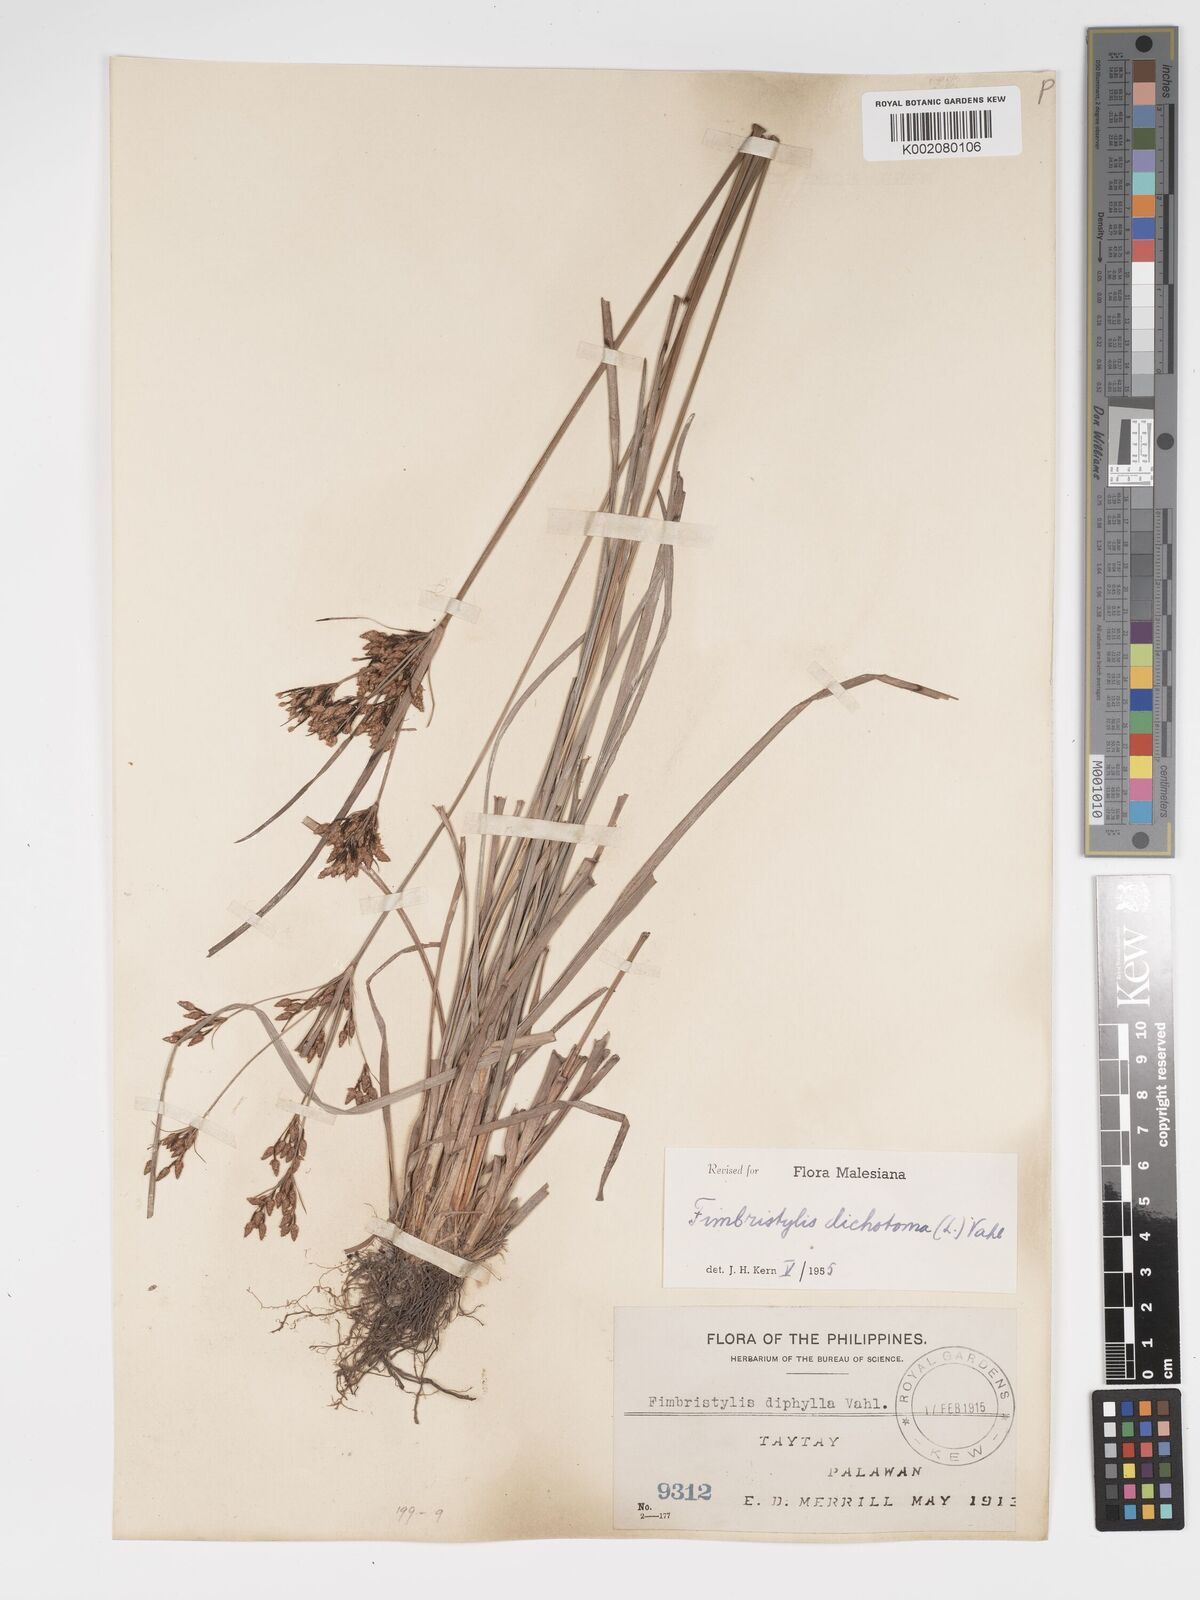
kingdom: Plantae
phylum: Tracheophyta
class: Liliopsida
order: Poales
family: Cyperaceae
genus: Fimbristylis
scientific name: Fimbristylis dichotoma
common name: Forked fimbry
